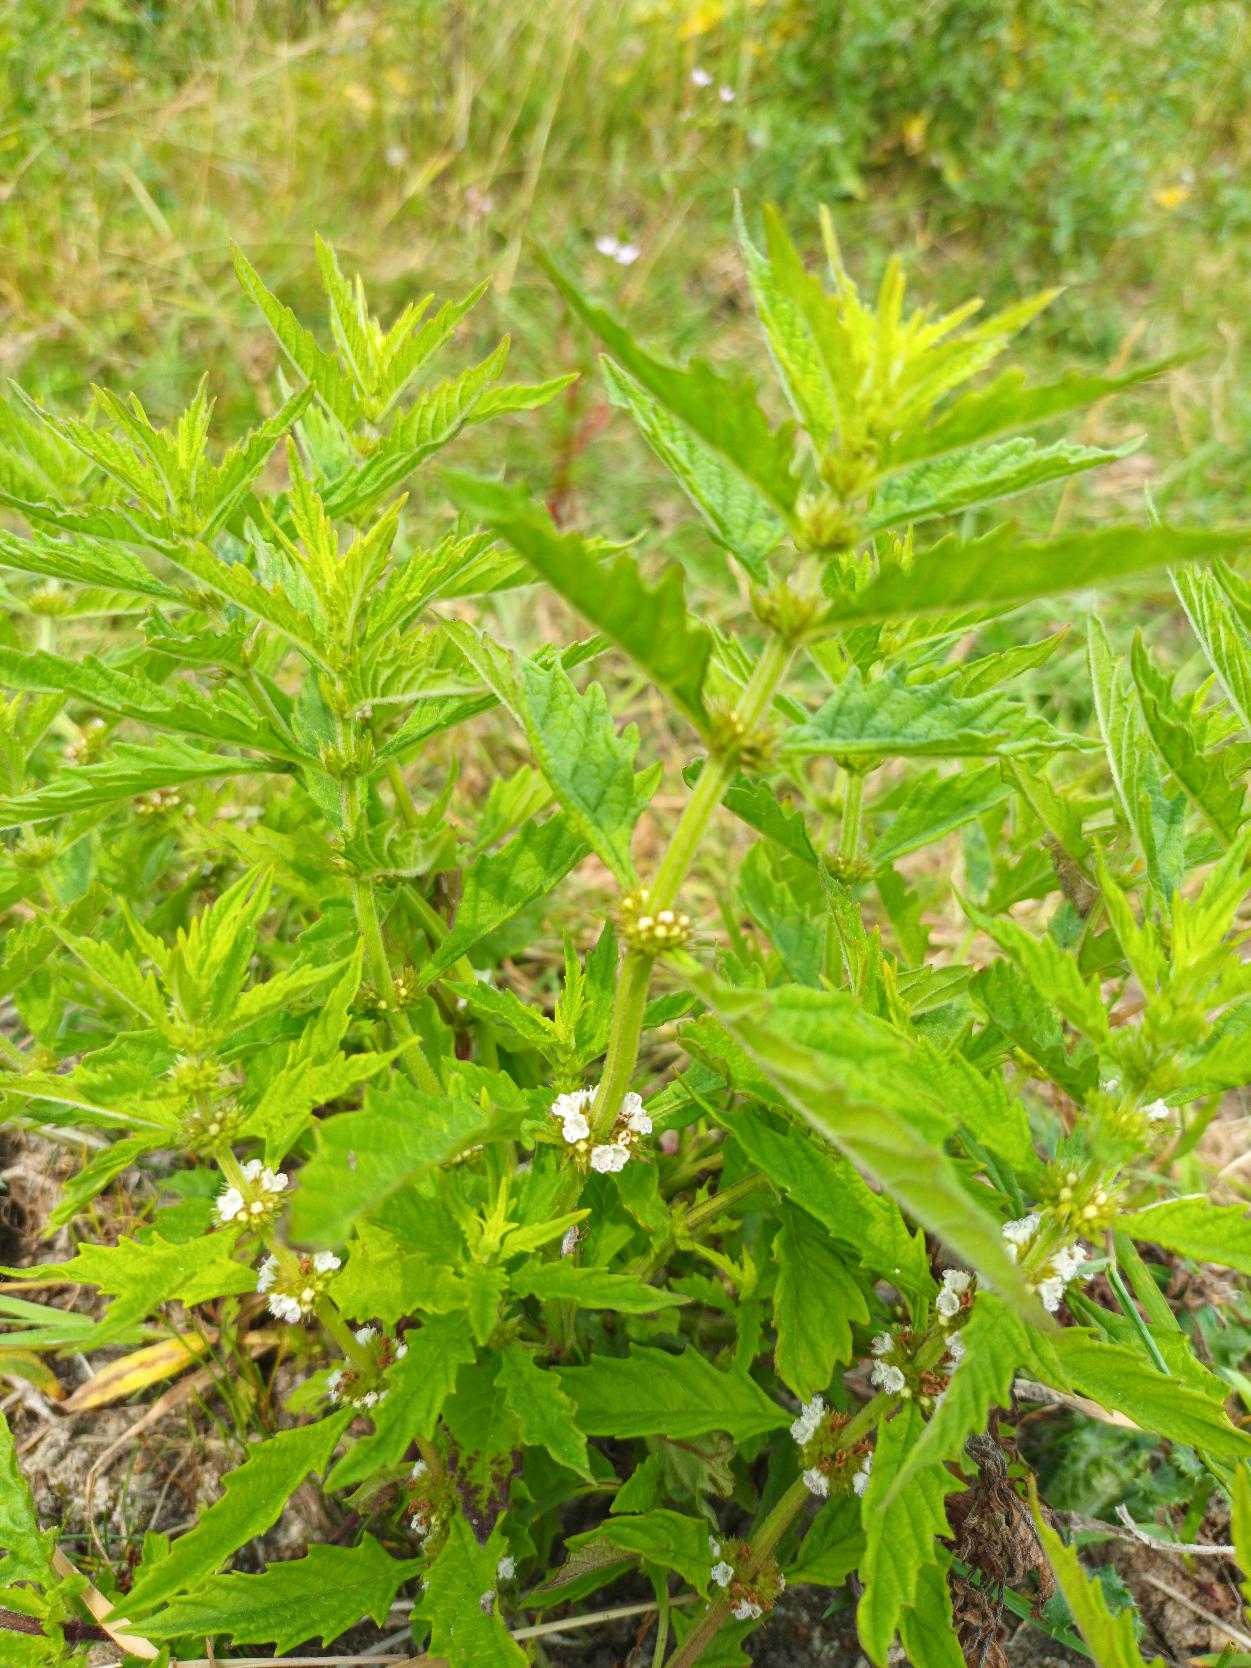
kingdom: Plantae
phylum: Tracheophyta
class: Magnoliopsida
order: Lamiales
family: Lamiaceae
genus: Lycopus
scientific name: Lycopus europaeus
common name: Sværtevæld
